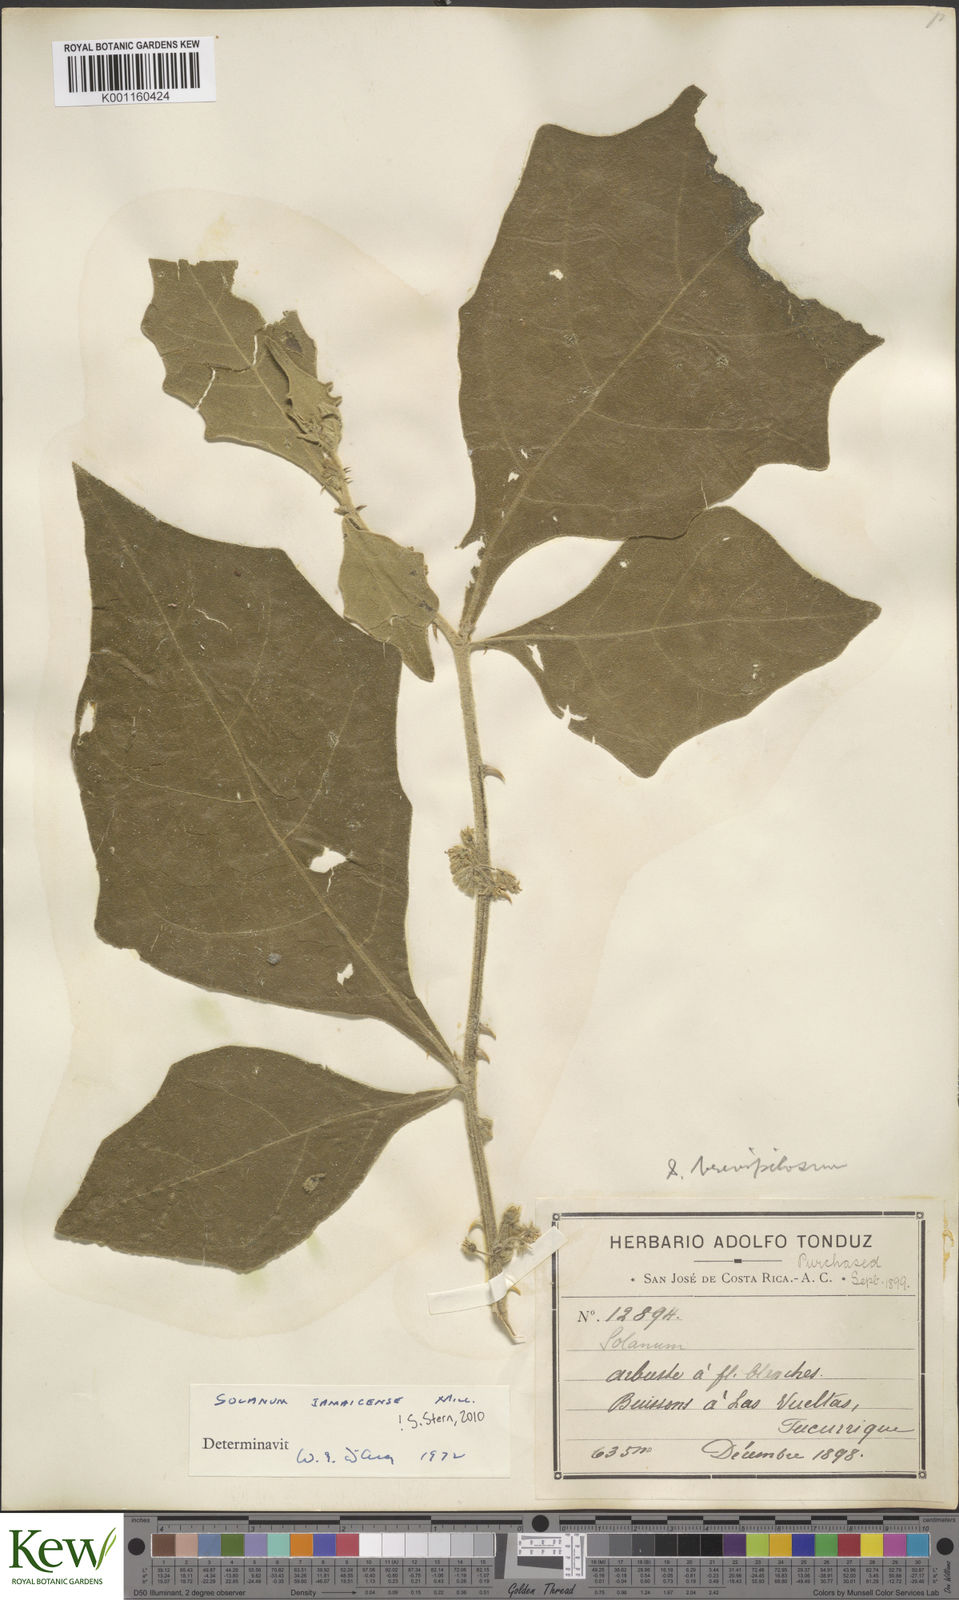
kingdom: Plantae
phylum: Tracheophyta
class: Magnoliopsida
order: Solanales
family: Solanaceae
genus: Solanum
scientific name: Solanum jamaicense
